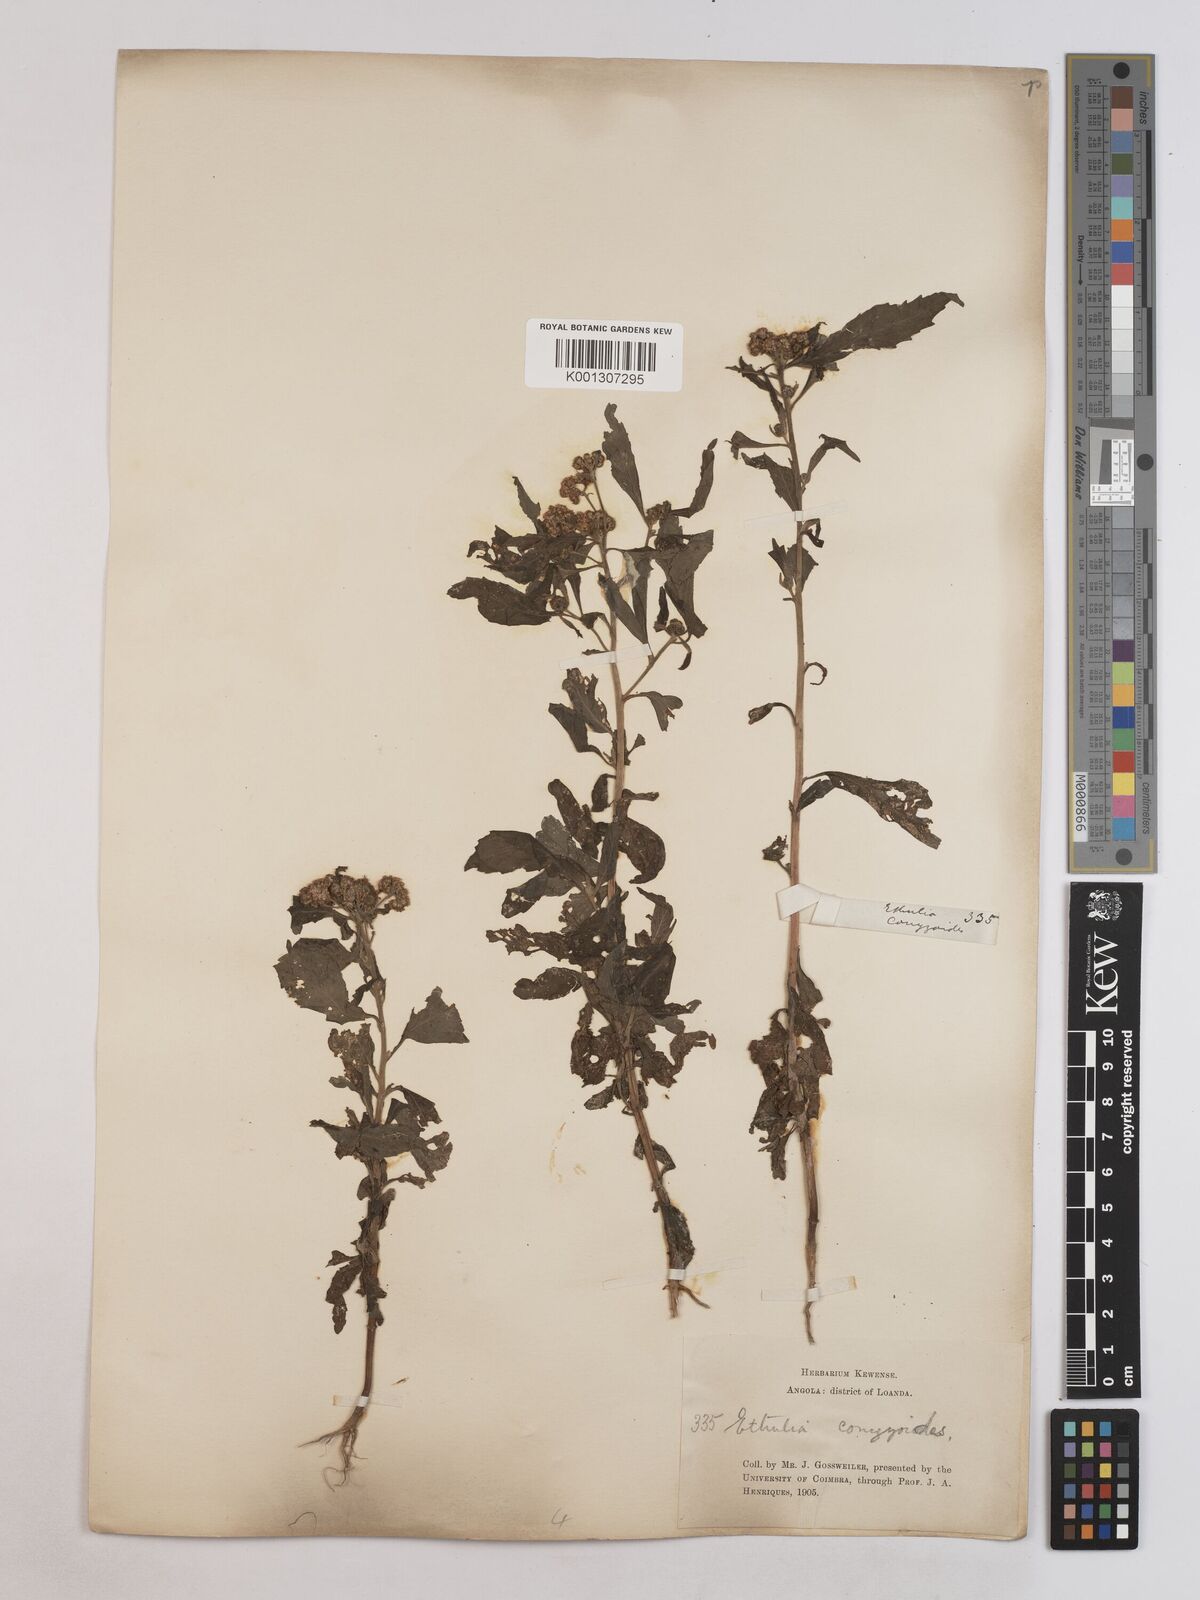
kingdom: Plantae
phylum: Tracheophyta
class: Magnoliopsida
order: Asterales
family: Asteraceae
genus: Ethulia
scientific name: Ethulia conyzoides
